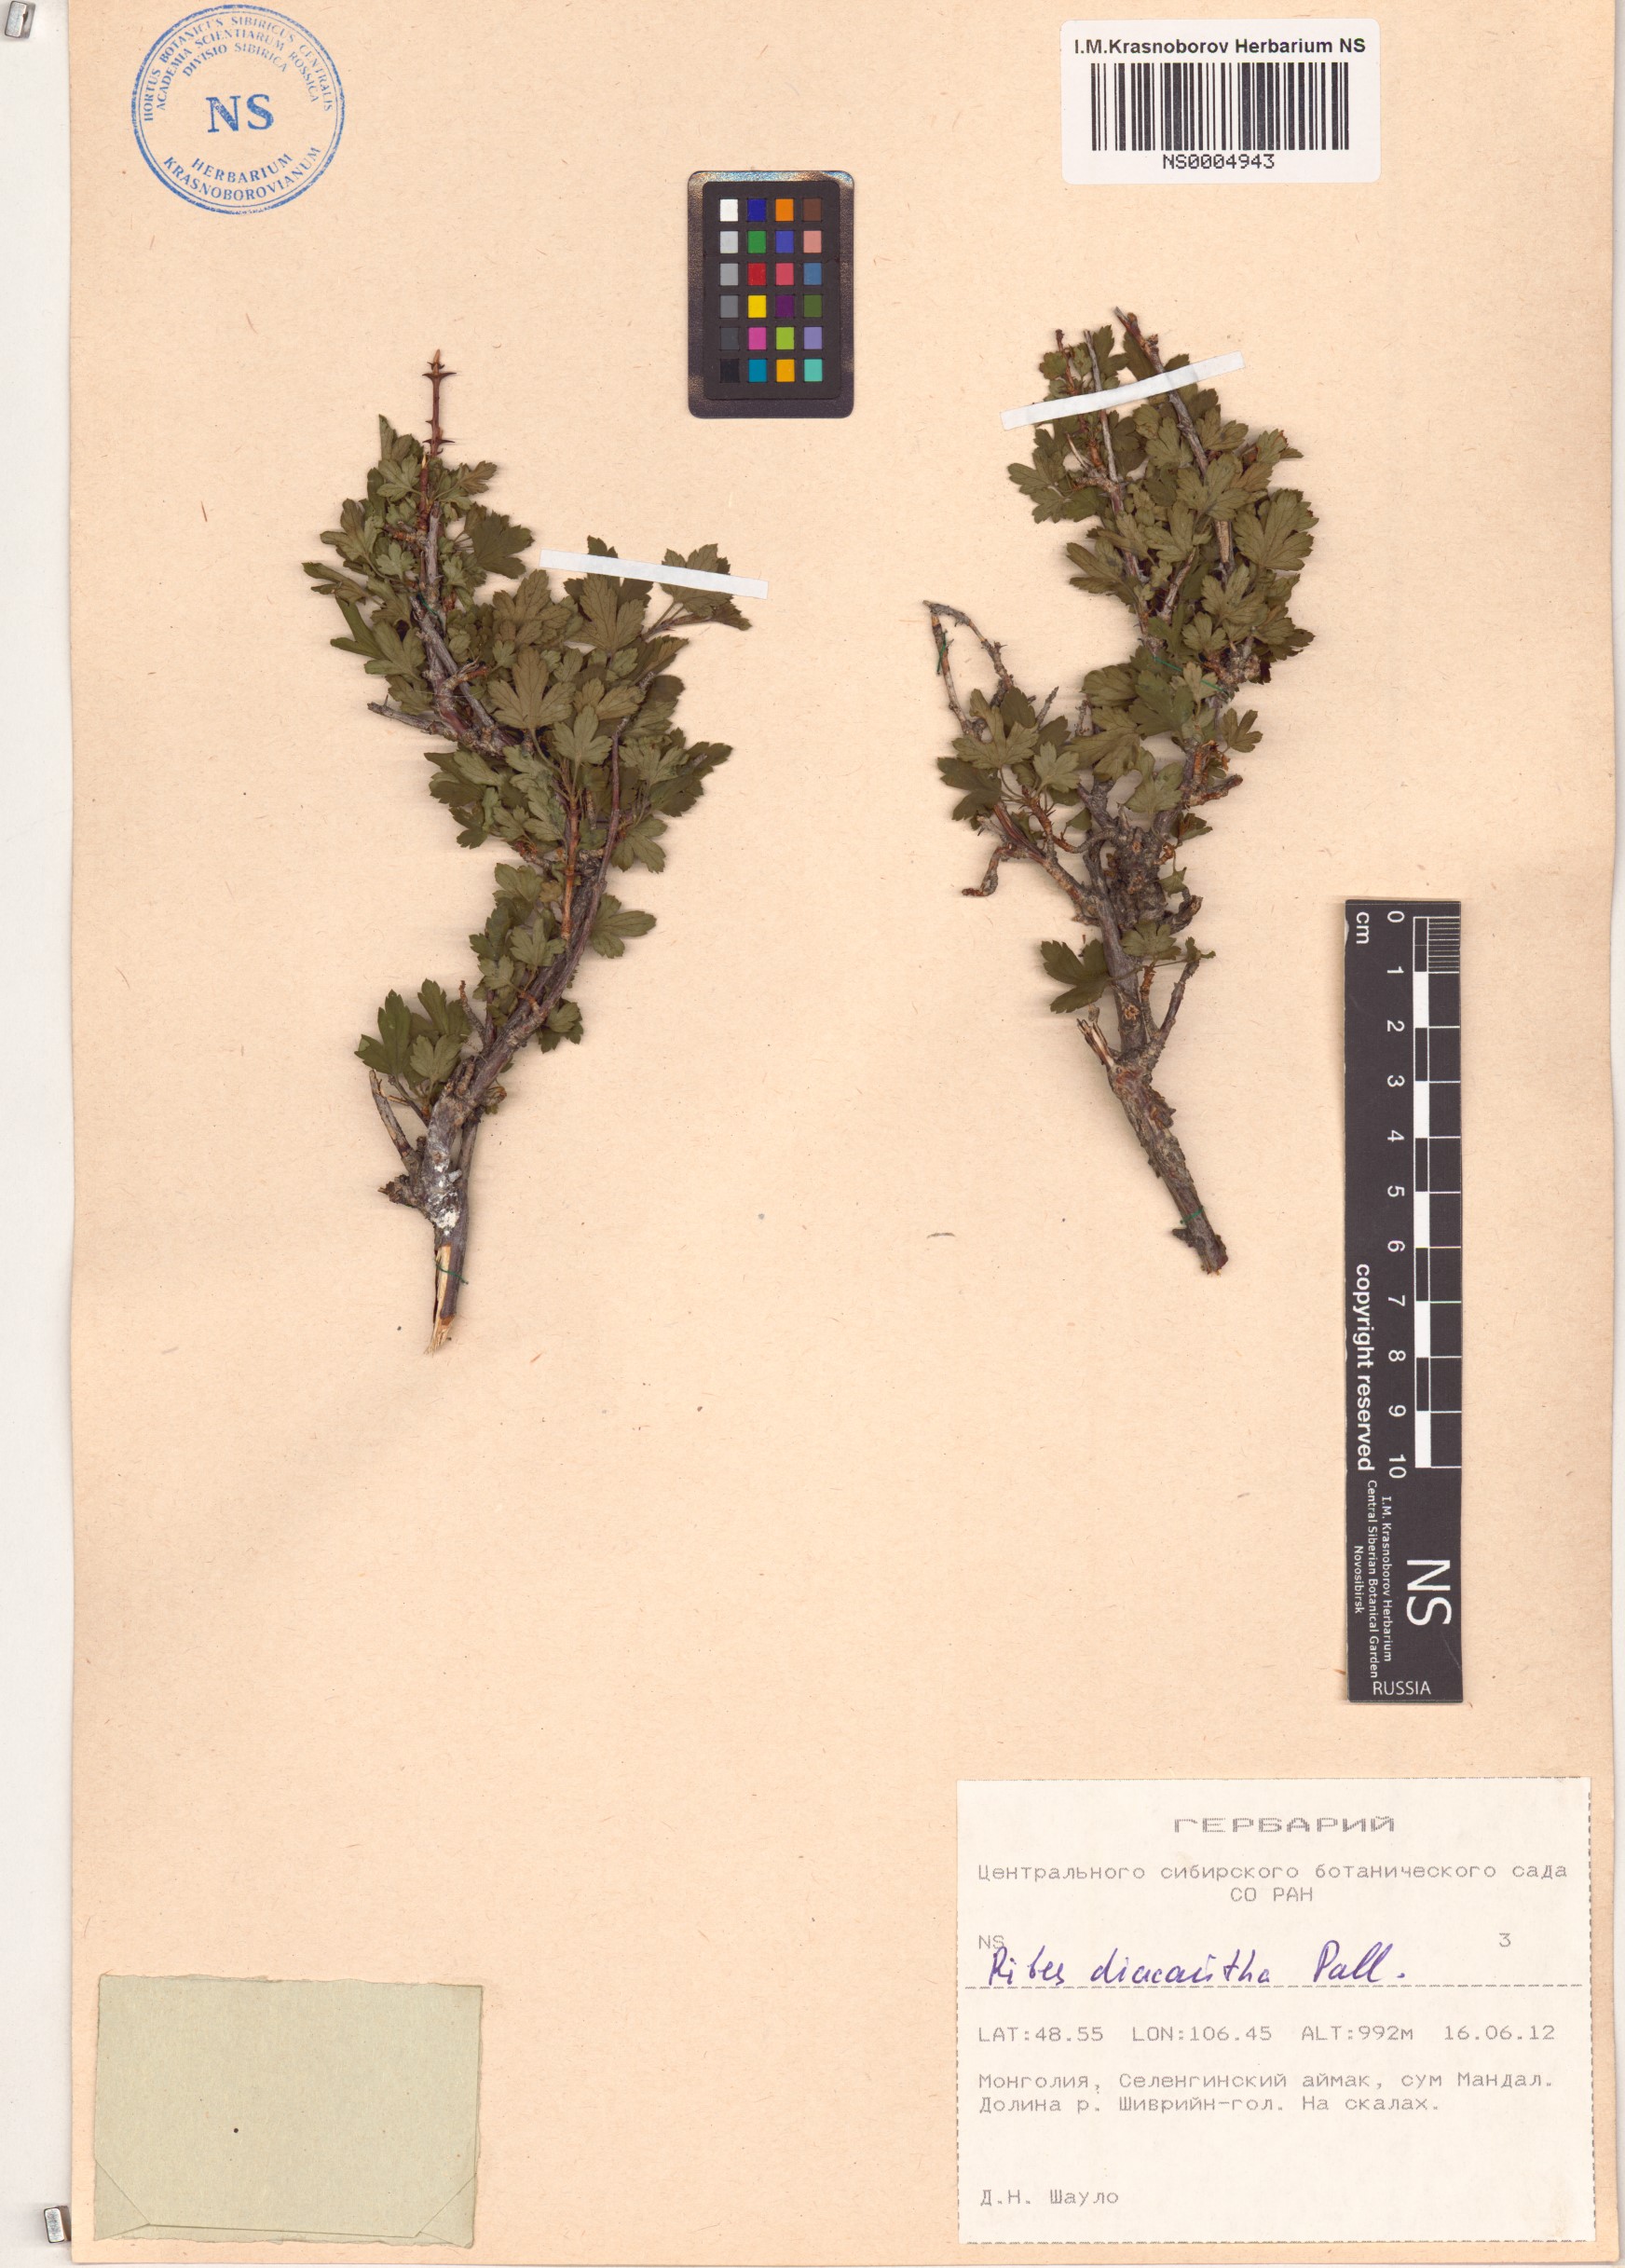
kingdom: Plantae
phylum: Tracheophyta
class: Magnoliopsida
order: Saxifragales
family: Grossulariaceae
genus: Ribes
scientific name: Ribes diacanthum
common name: Siberian currant
